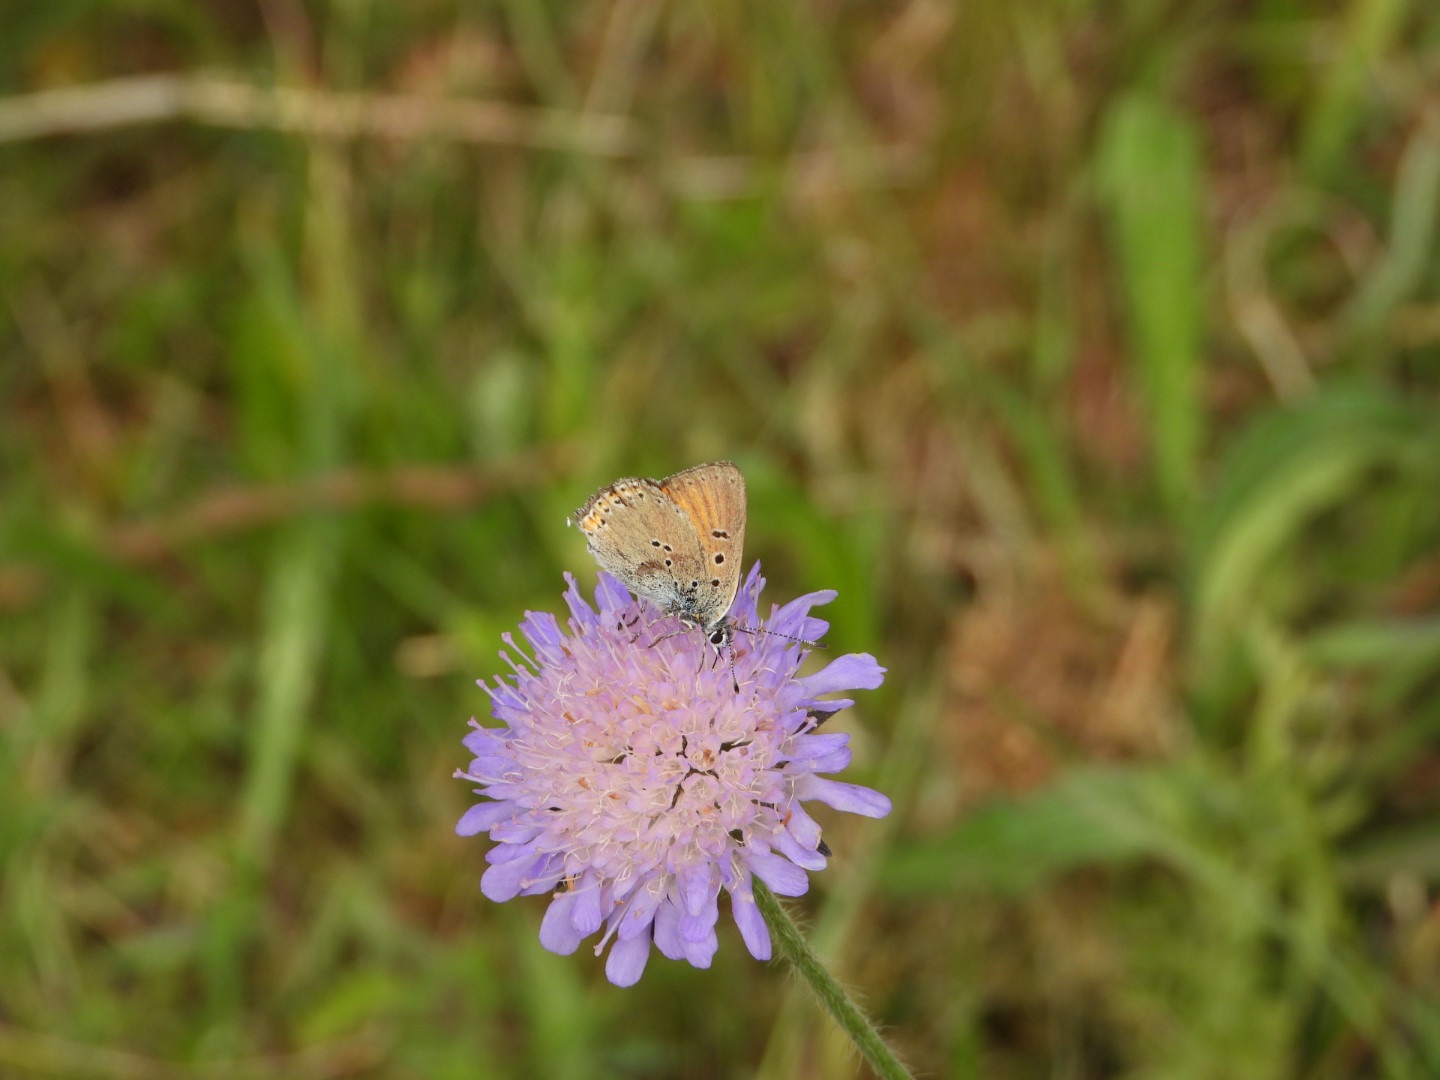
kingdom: Animalia
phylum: Arthropoda
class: Insecta
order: Lepidoptera
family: Lycaenidae
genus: Palaeochrysophanus
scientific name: Palaeochrysophanus hippothoe
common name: Violetrandet ildfugl
